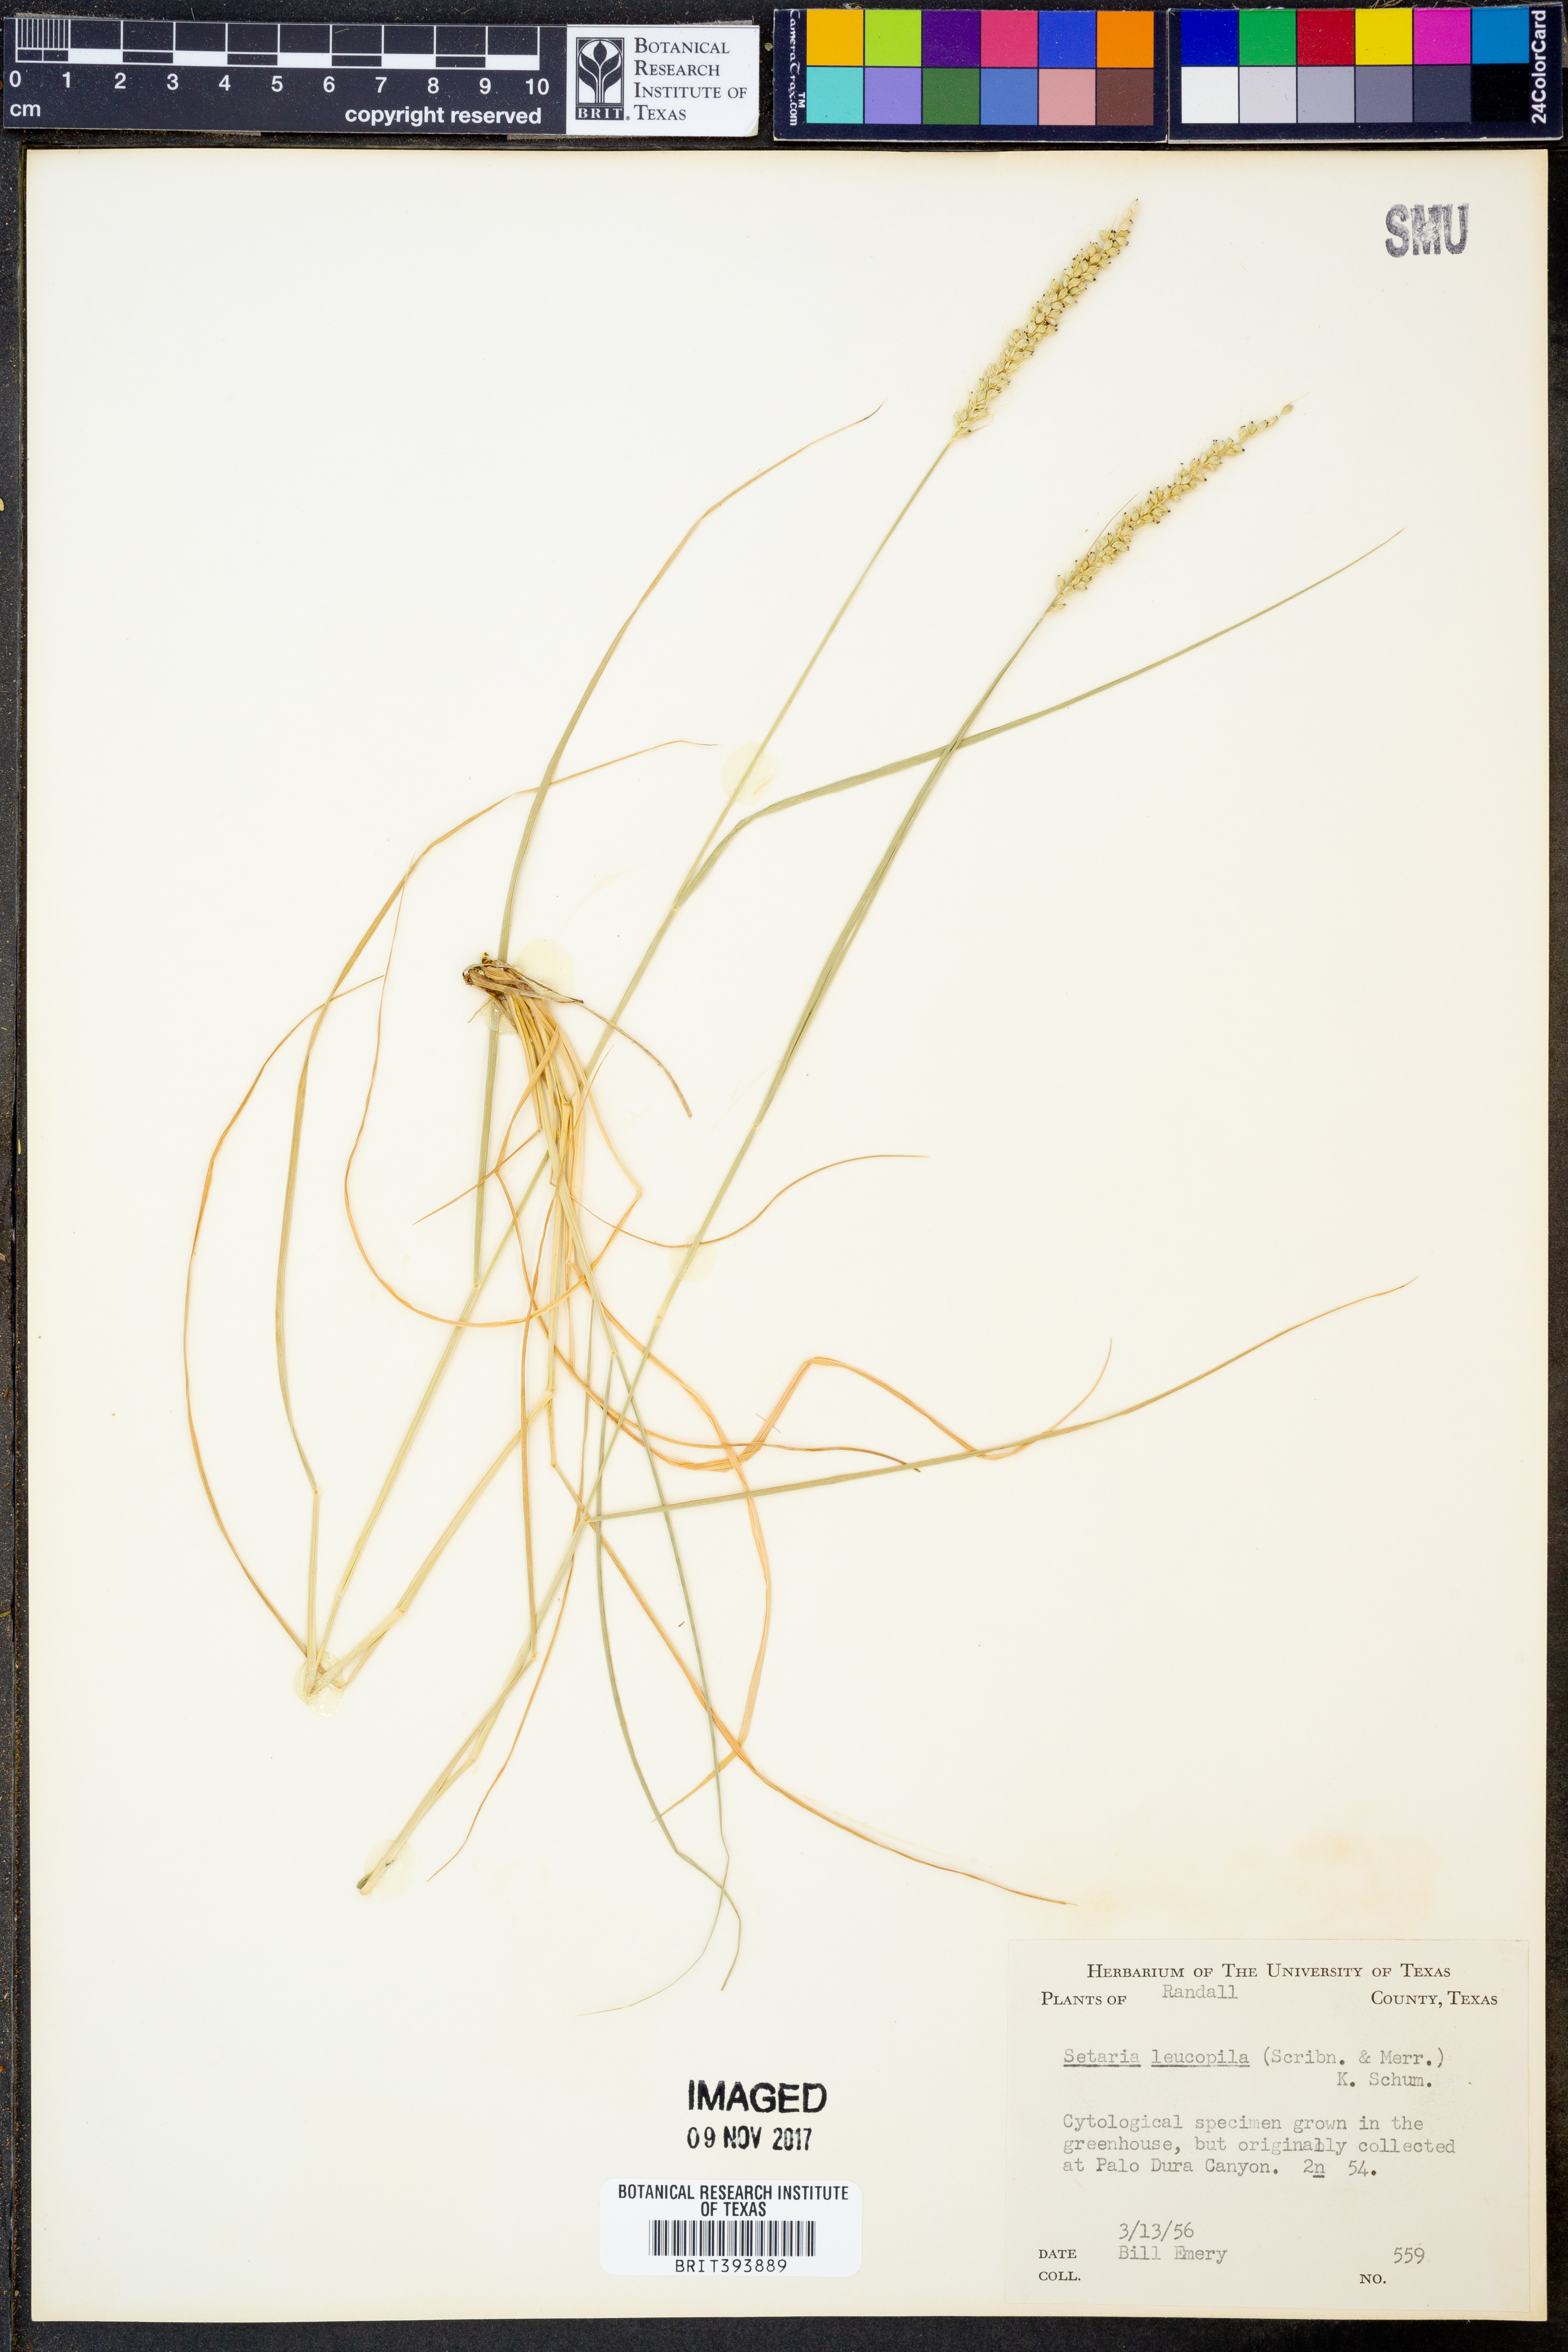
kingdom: Plantae
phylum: Tracheophyta
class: Liliopsida
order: Poales
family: Poaceae
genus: Setaria
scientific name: Setaria leucopila
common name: Plains bristle grass
